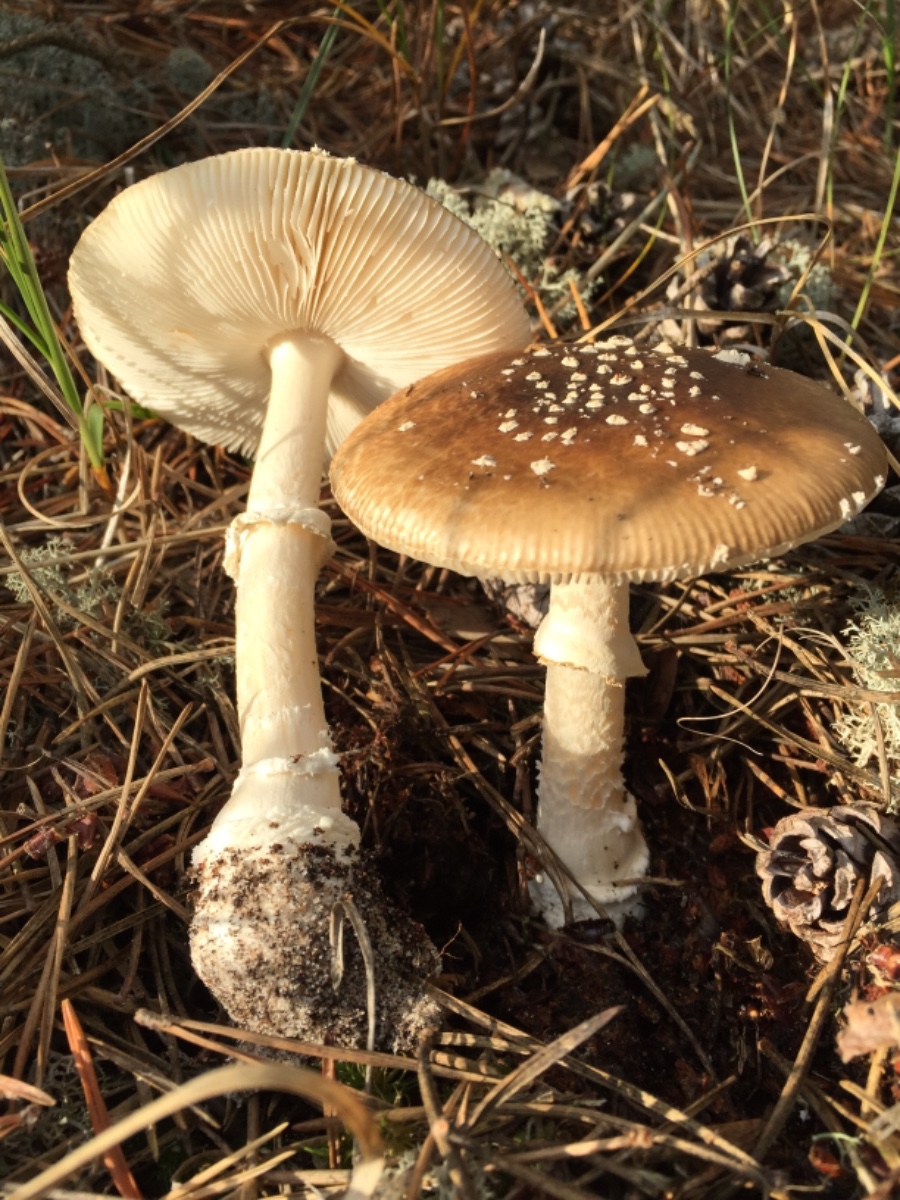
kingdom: Fungi
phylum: Basidiomycota
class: Agaricomycetes
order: Agaricales
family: Amanitaceae
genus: Amanita
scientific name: Amanita pantherina
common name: panter-fluesvamp
